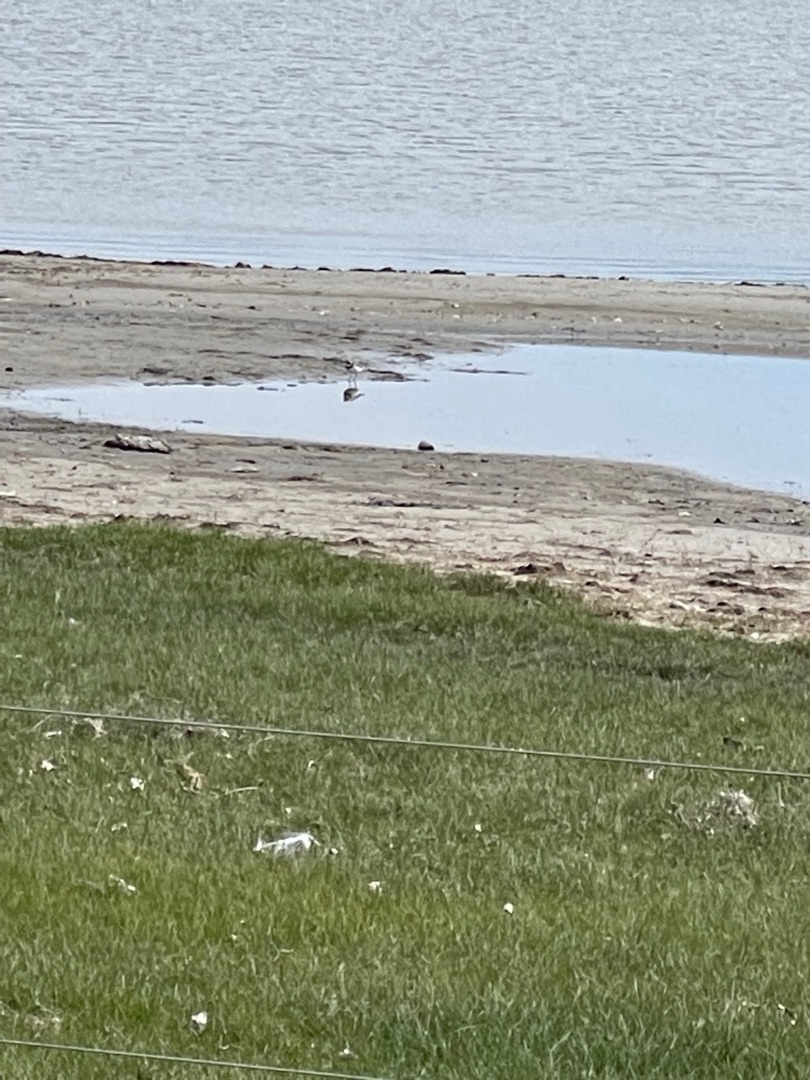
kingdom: Animalia
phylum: Chordata
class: Aves
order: Charadriiformes
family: Charadriidae
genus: Charadrius
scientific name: Charadrius hiaticula
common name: Stor præstekrave
